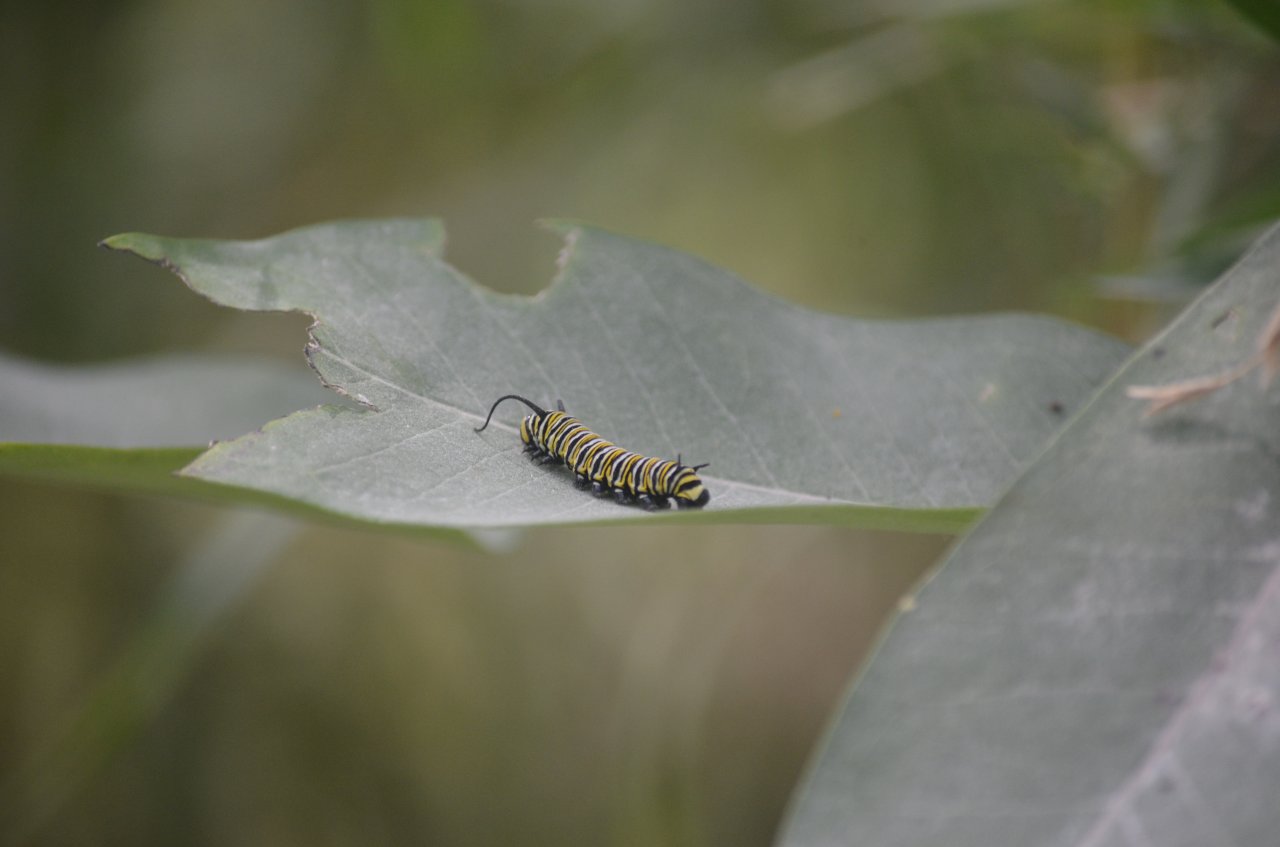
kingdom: Animalia
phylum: Arthropoda
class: Insecta
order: Lepidoptera
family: Nymphalidae
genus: Danaus
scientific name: Danaus plexippus
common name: Monarch
